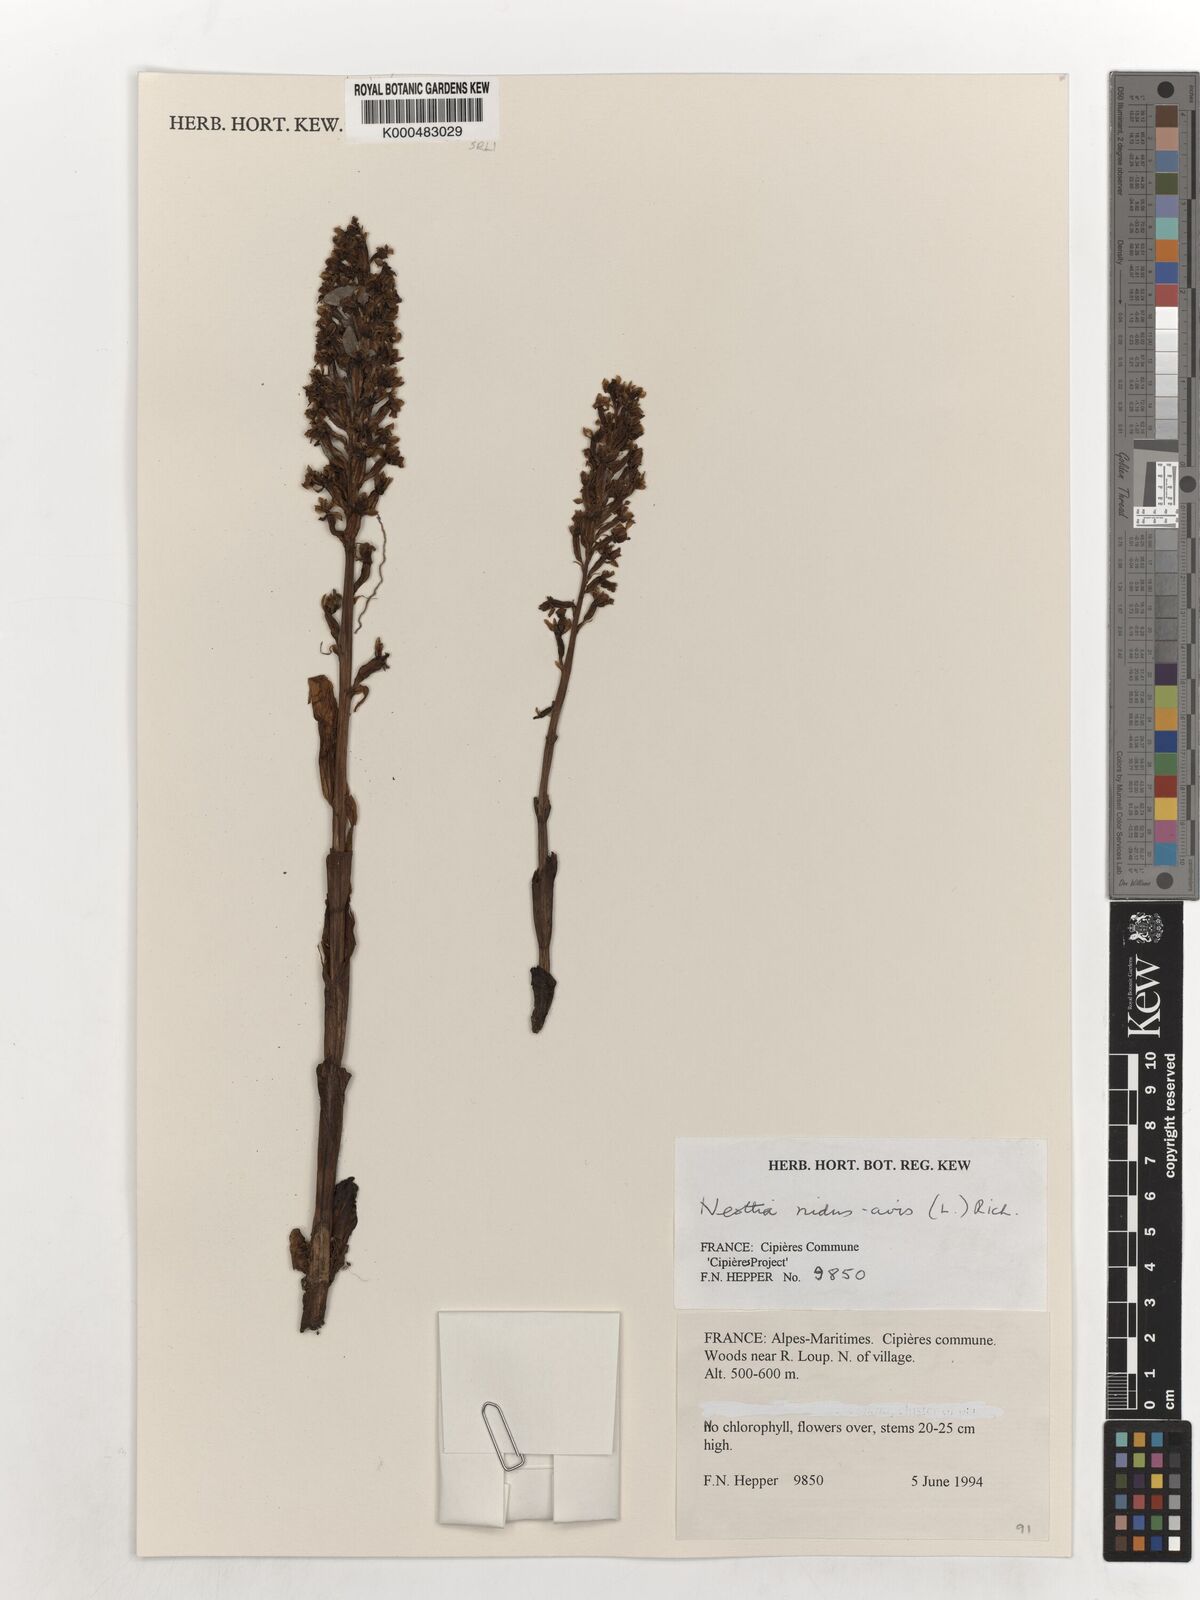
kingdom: Plantae
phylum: Tracheophyta
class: Liliopsida
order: Asparagales
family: Orchidaceae
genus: Neottia
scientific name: Neottia nidus-avis
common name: Bird's-nest orchid
